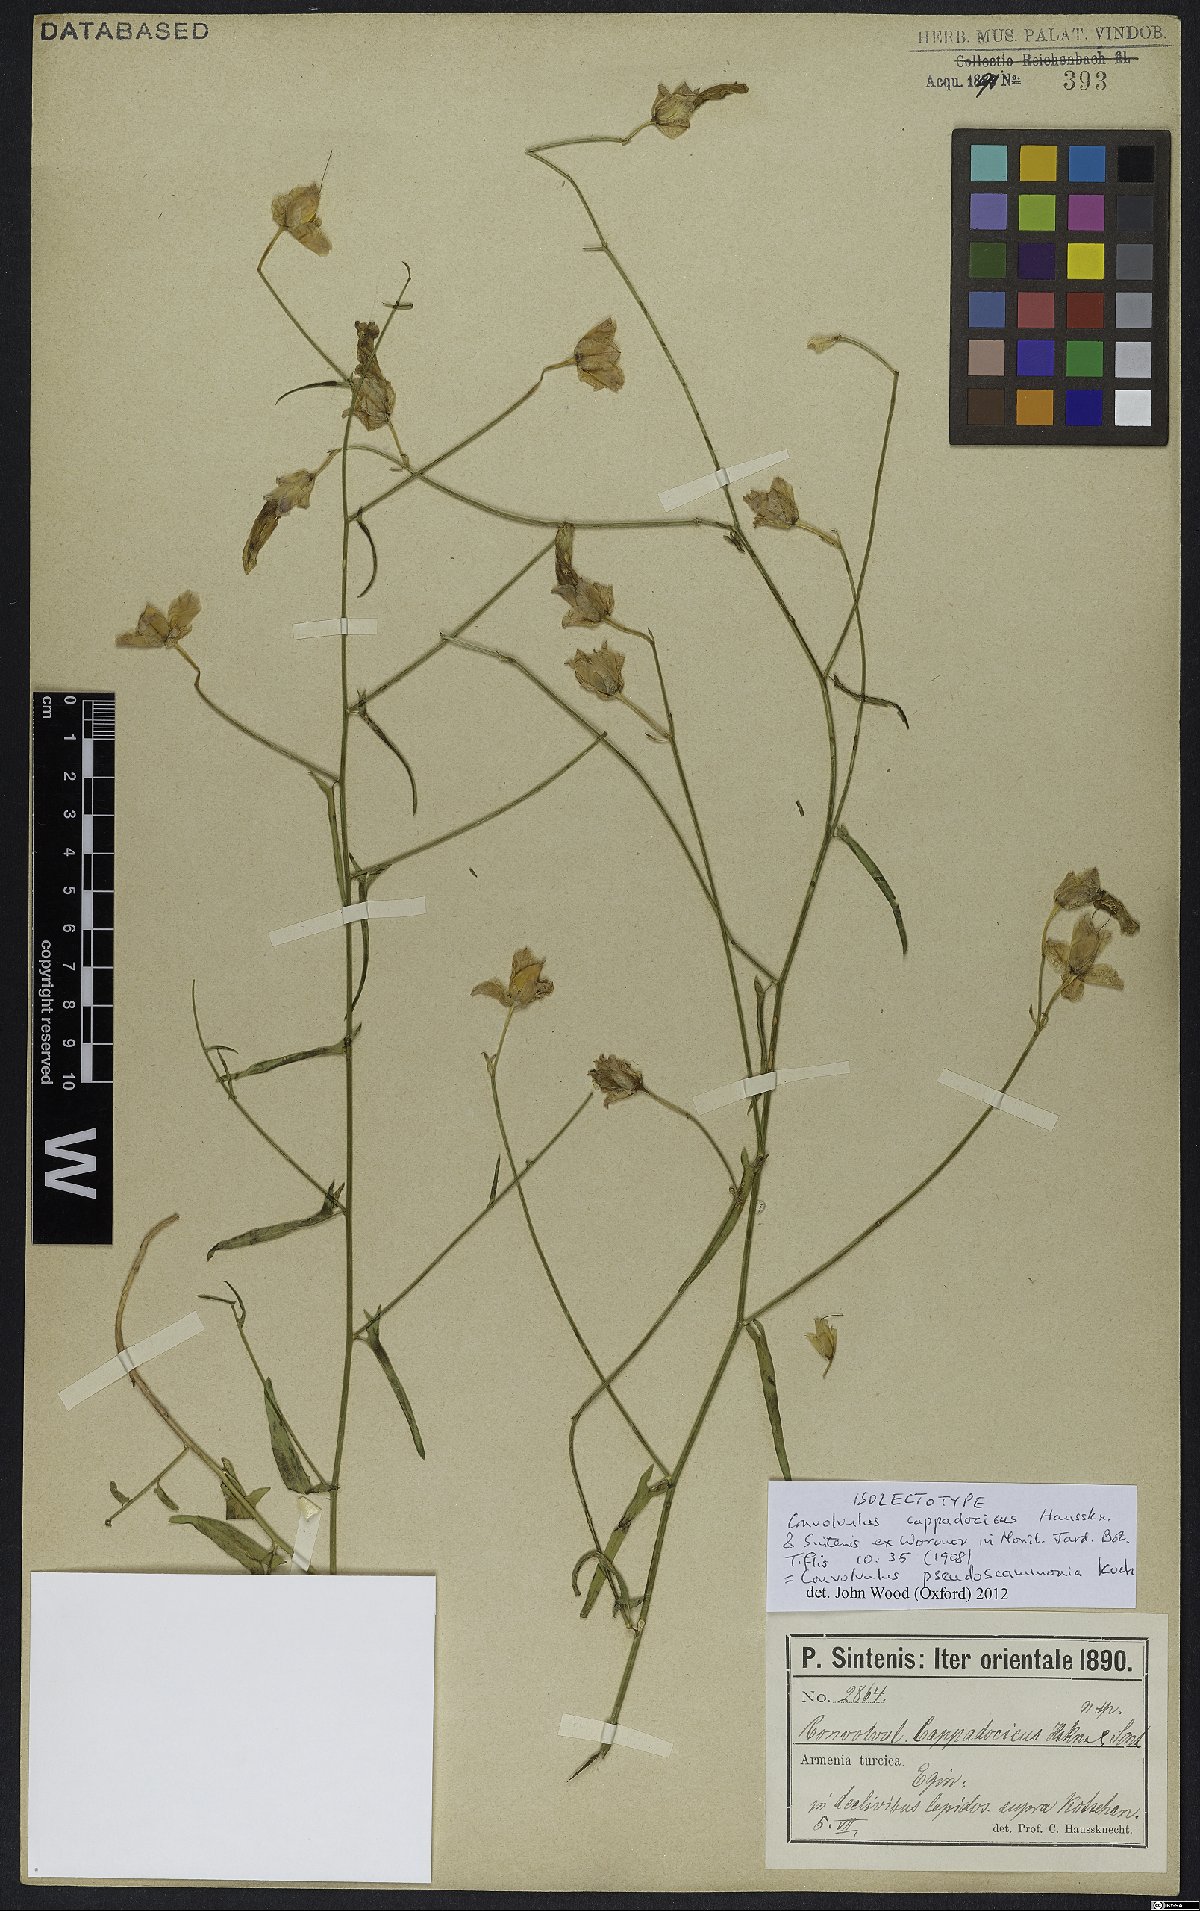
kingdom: Plantae
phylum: Tracheophyta
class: Magnoliopsida
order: Solanales
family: Convolvulaceae
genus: Convolvulus
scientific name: Convolvulus pseudoscammonia
